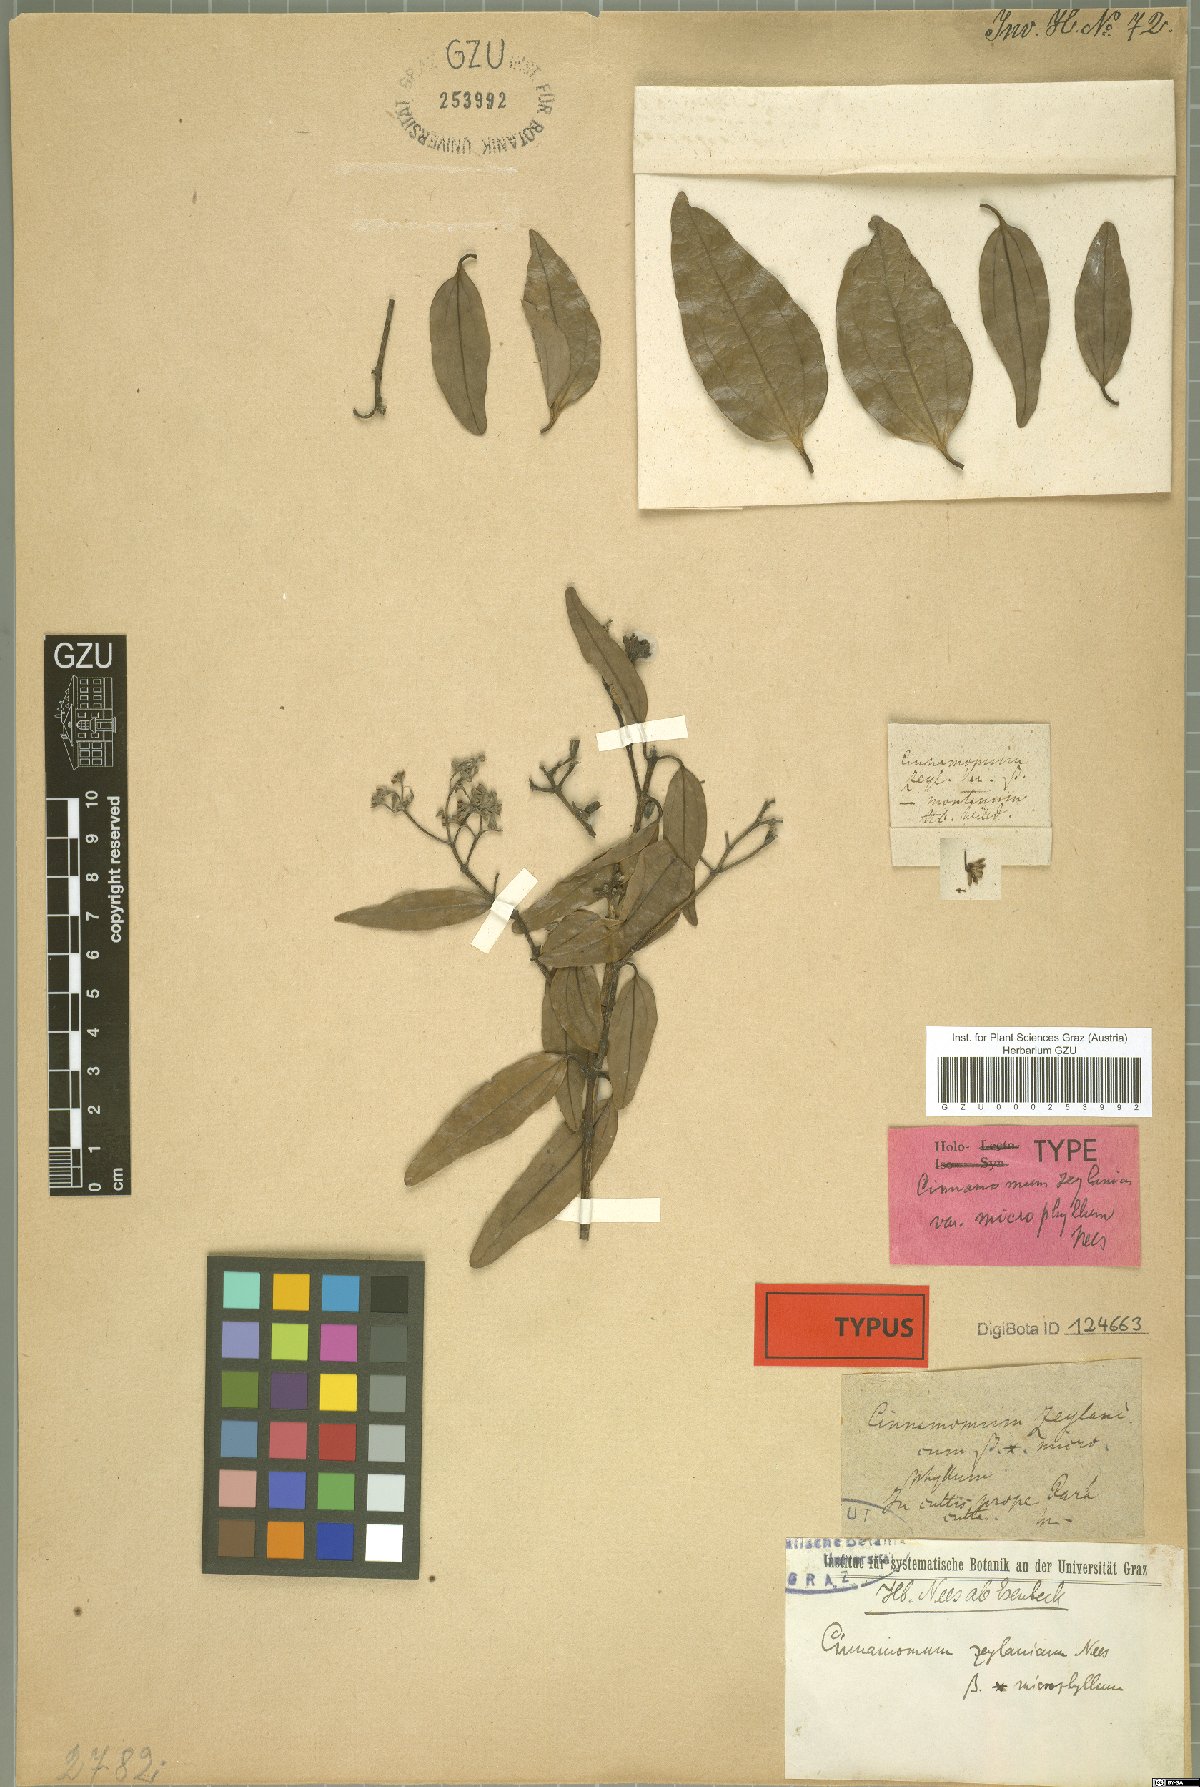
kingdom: Plantae
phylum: Tracheophyta
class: Magnoliopsida
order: Laurales
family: Lauraceae
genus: Cinnamomum
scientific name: Cinnamomum verum
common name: Cinnamon
